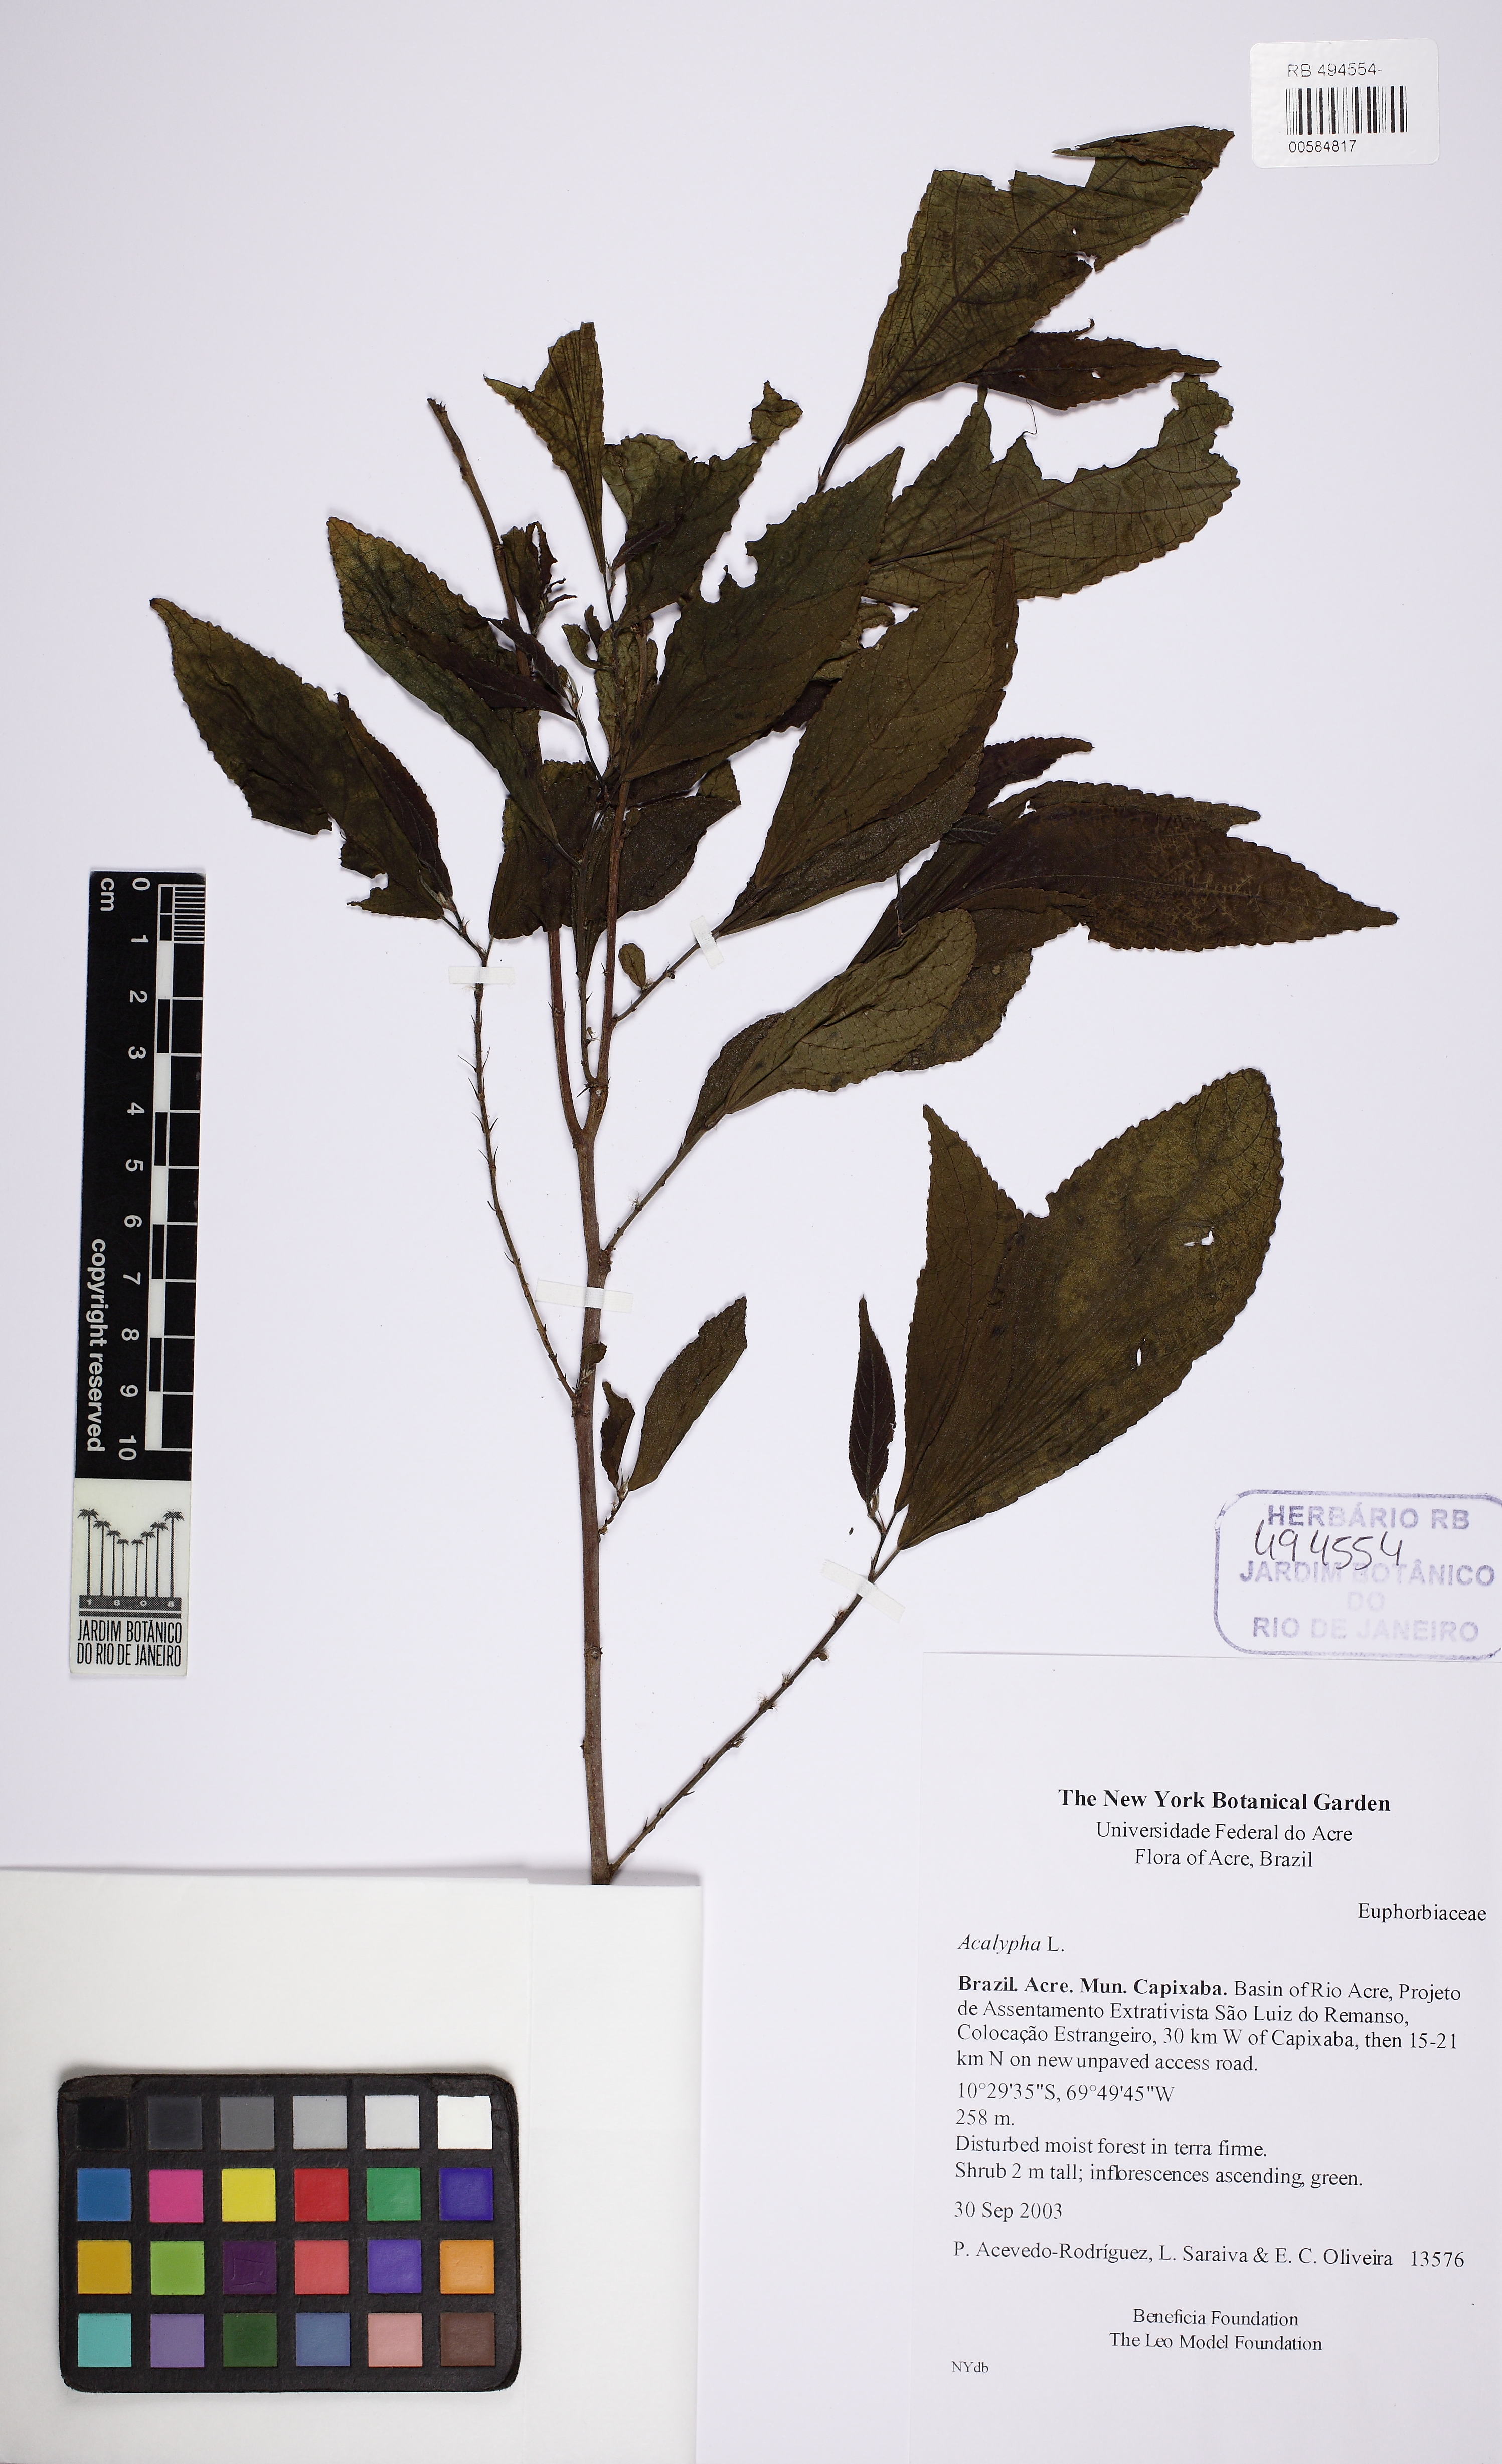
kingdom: Plantae
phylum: Tracheophyta
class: Magnoliopsida
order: Malpighiales
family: Euphorbiaceae
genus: Acalypha
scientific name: Acalypha
